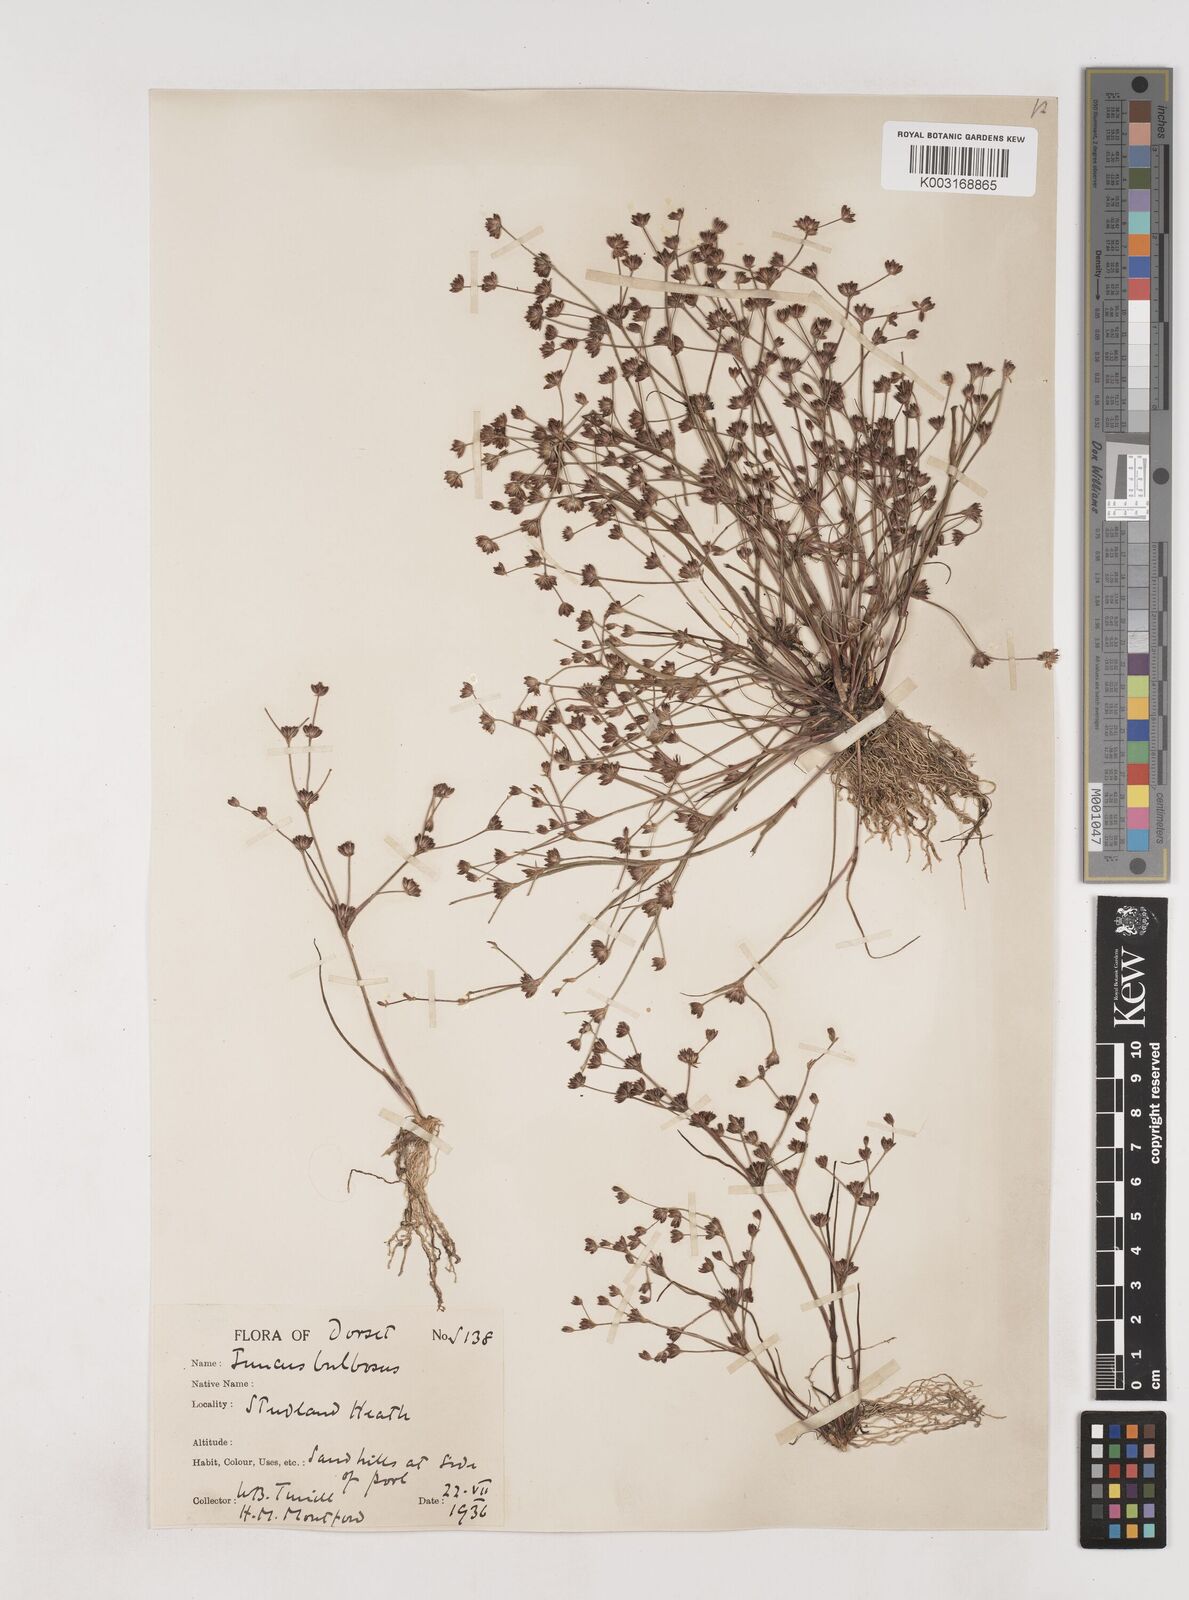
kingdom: Plantae
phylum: Tracheophyta
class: Liliopsida
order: Poales
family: Juncaceae
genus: Juncus
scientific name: Juncus bulbosus
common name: Bulbous rush
